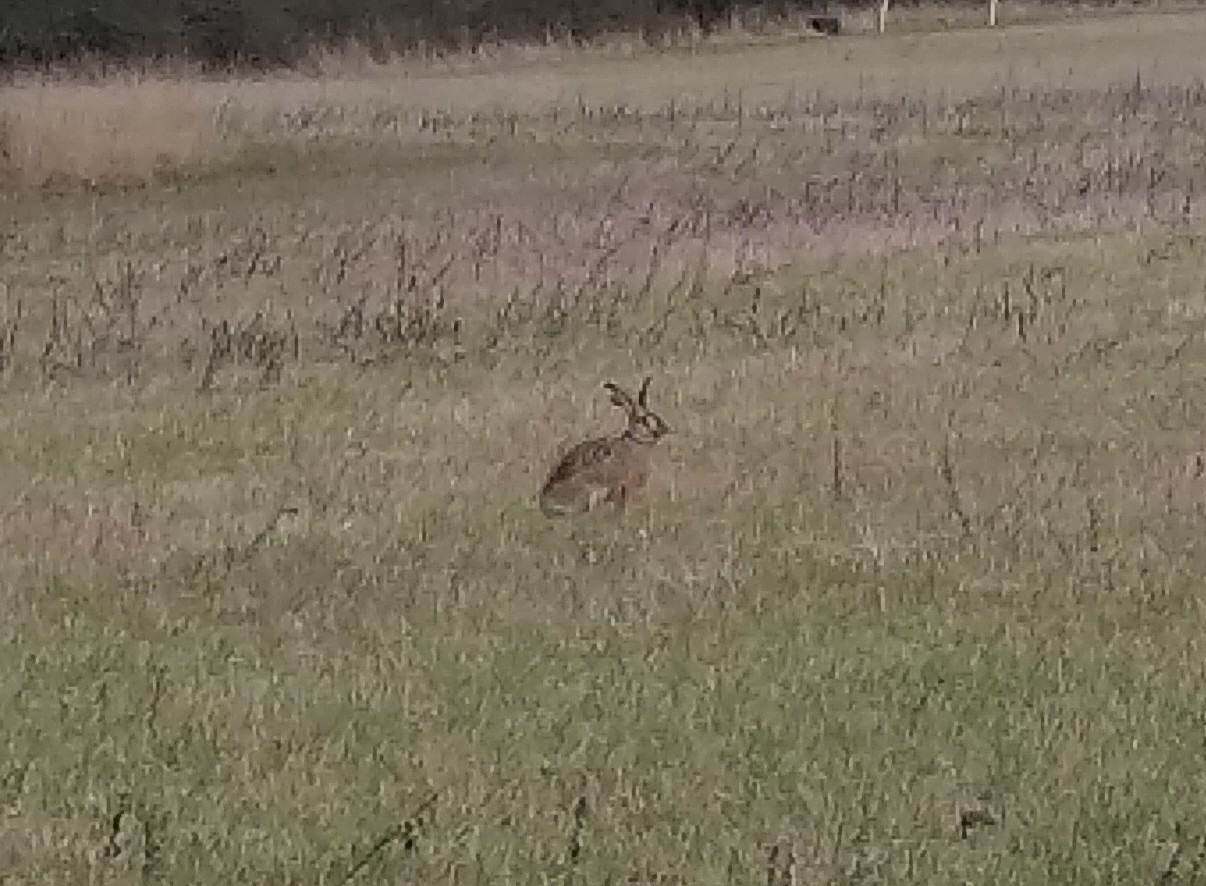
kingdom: Animalia
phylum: Chordata
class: Mammalia
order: Lagomorpha
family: Leporidae
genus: Lepus
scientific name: Lepus europaeus
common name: Hare
